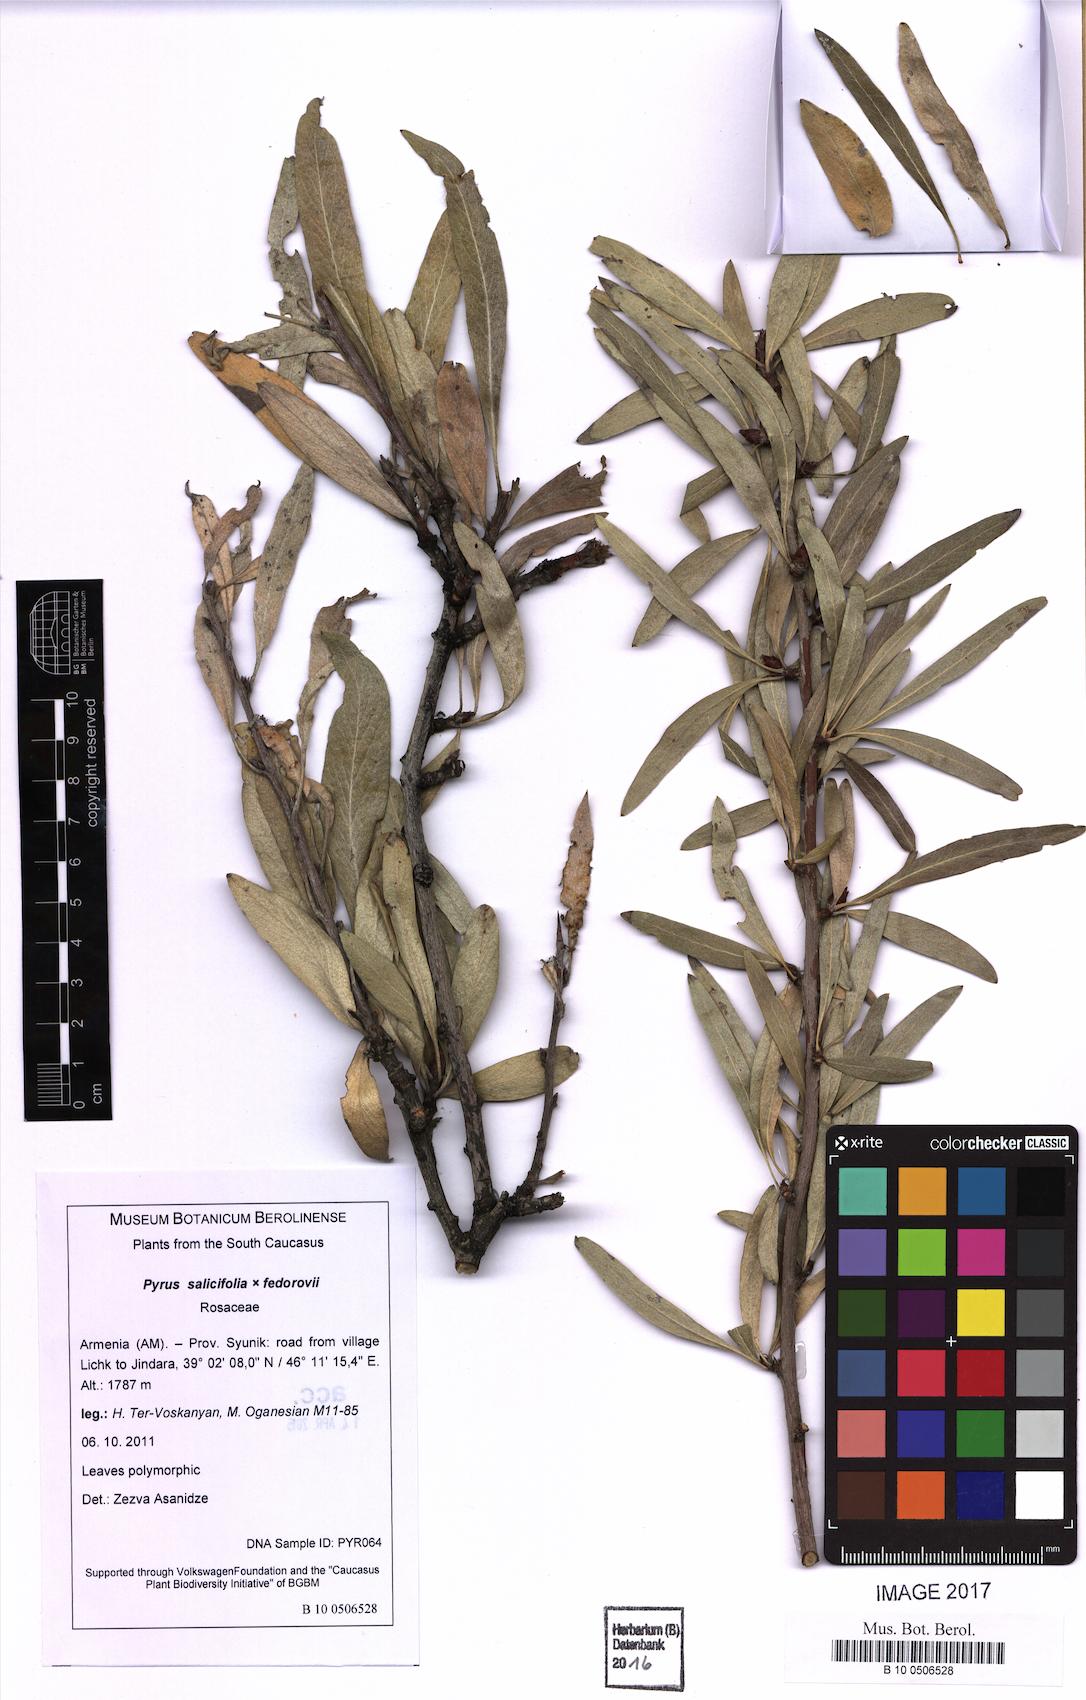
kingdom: Plantae
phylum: Tracheophyta
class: Magnoliopsida
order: Rosales
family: Rosaceae
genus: Pyrus
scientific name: Pyrus salicifolia
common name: Willow-leaved pear
